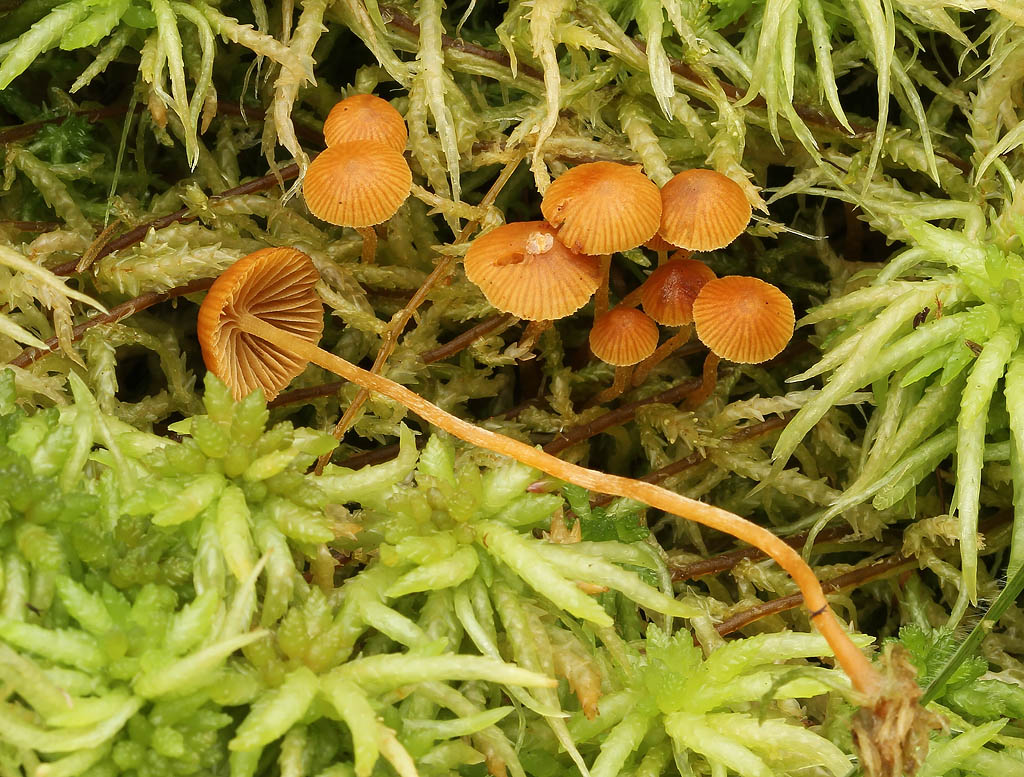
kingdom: Fungi
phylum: Basidiomycota
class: Agaricomycetes
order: Agaricales
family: Hymenogastraceae
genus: Galerina
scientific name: Galerina sphagnicola
